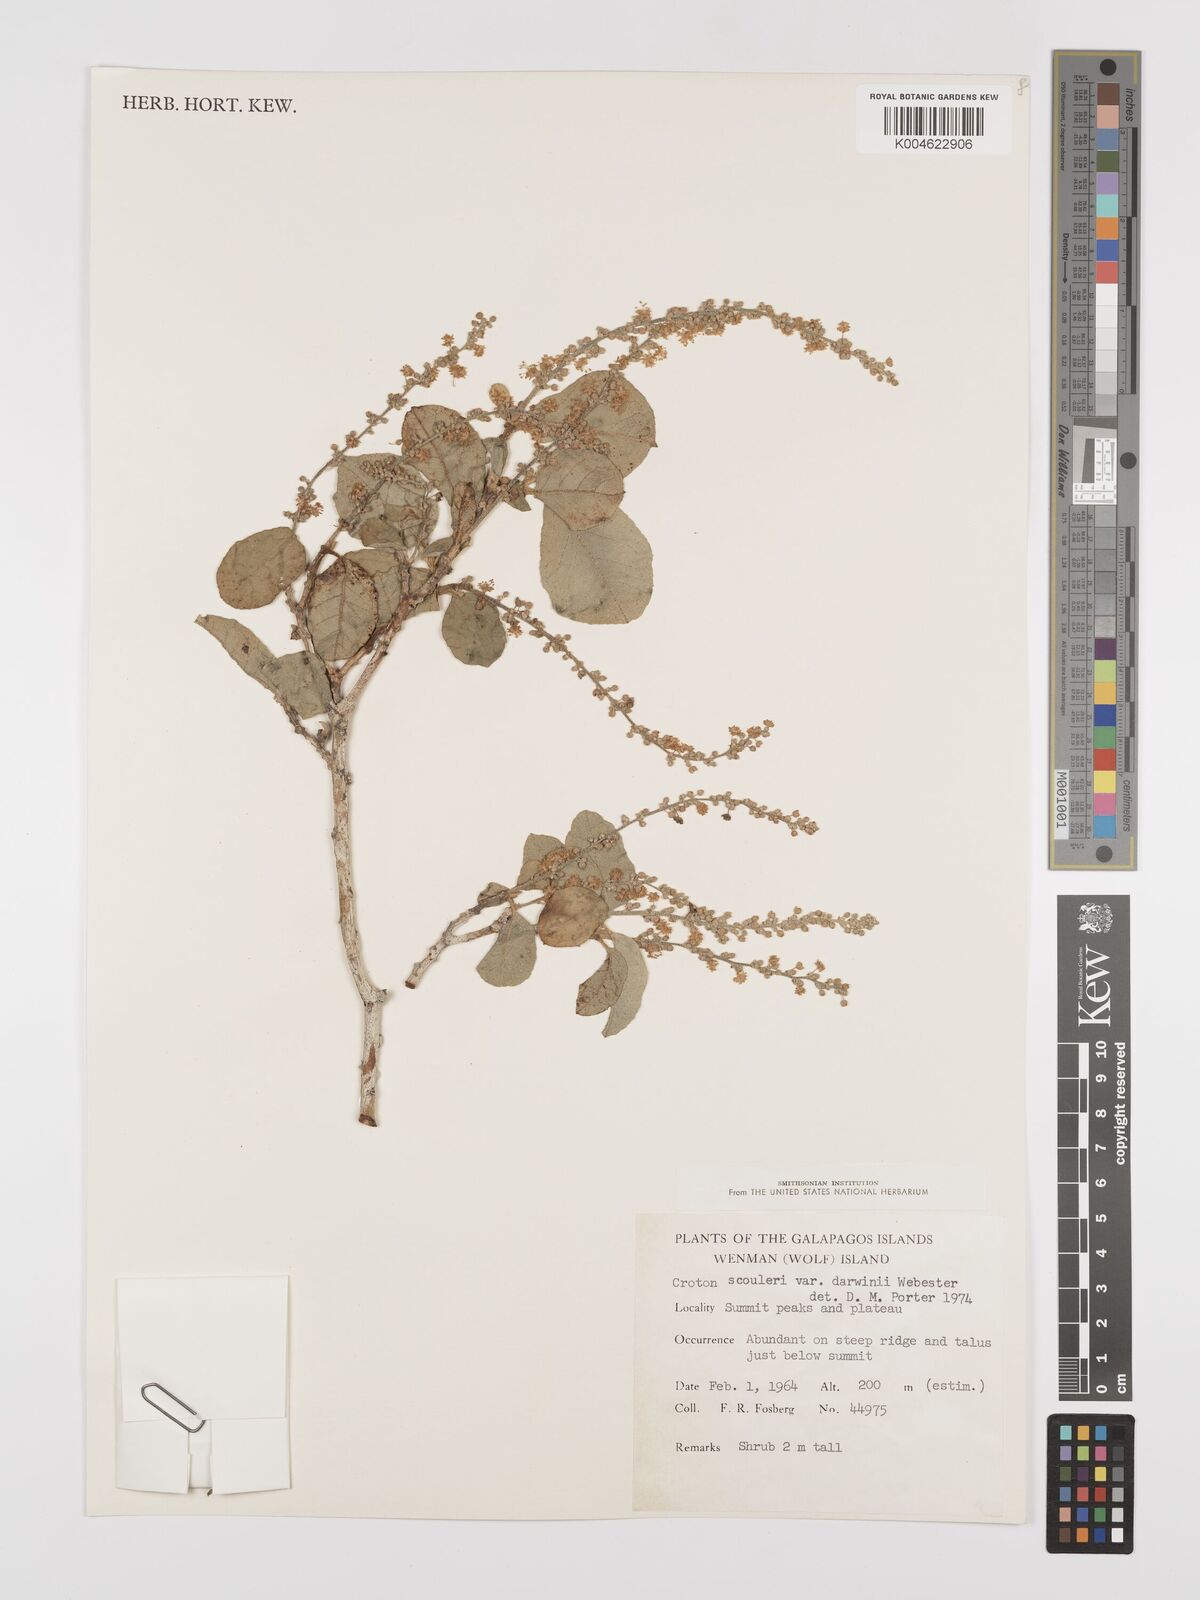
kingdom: Plantae
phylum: Tracheophyta
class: Magnoliopsida
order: Malpighiales
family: Euphorbiaceae
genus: Croton
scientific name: Croton scouleri
